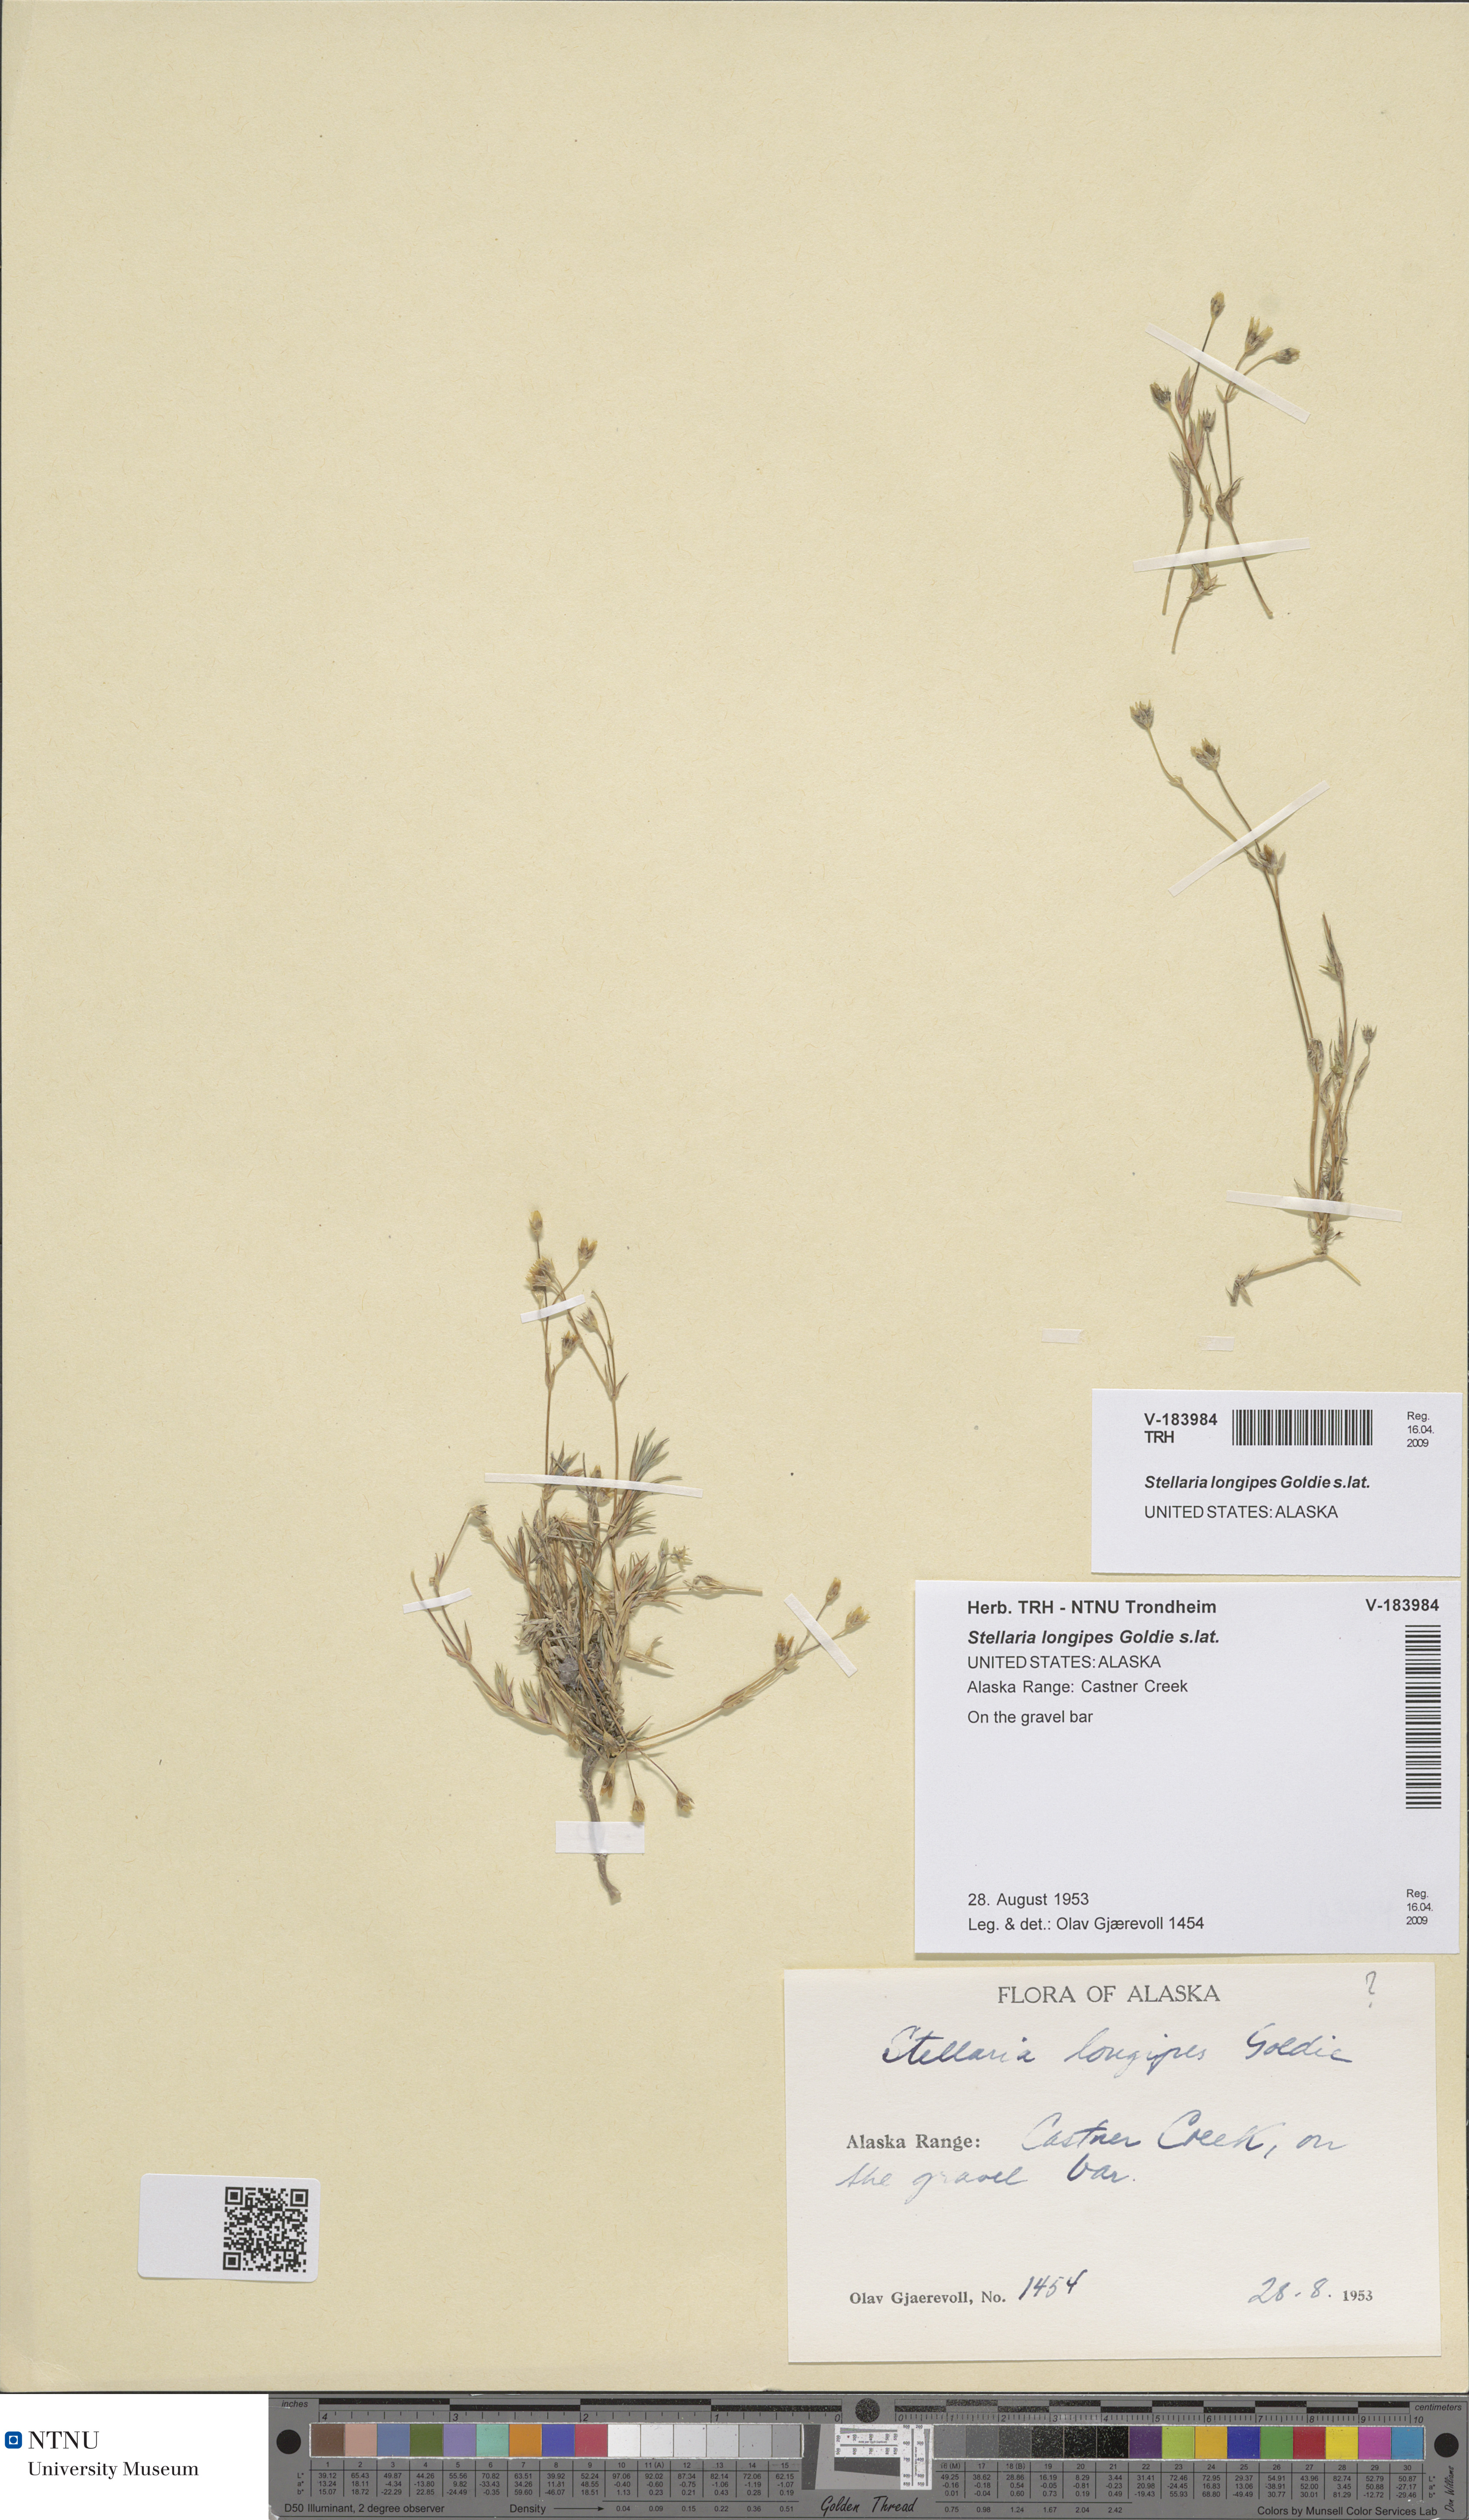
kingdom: Plantae
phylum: Tracheophyta
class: Magnoliopsida
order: Caryophyllales
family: Caryophyllaceae
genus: Stellaria
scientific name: Stellaria longipes
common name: Goldie's starwort
